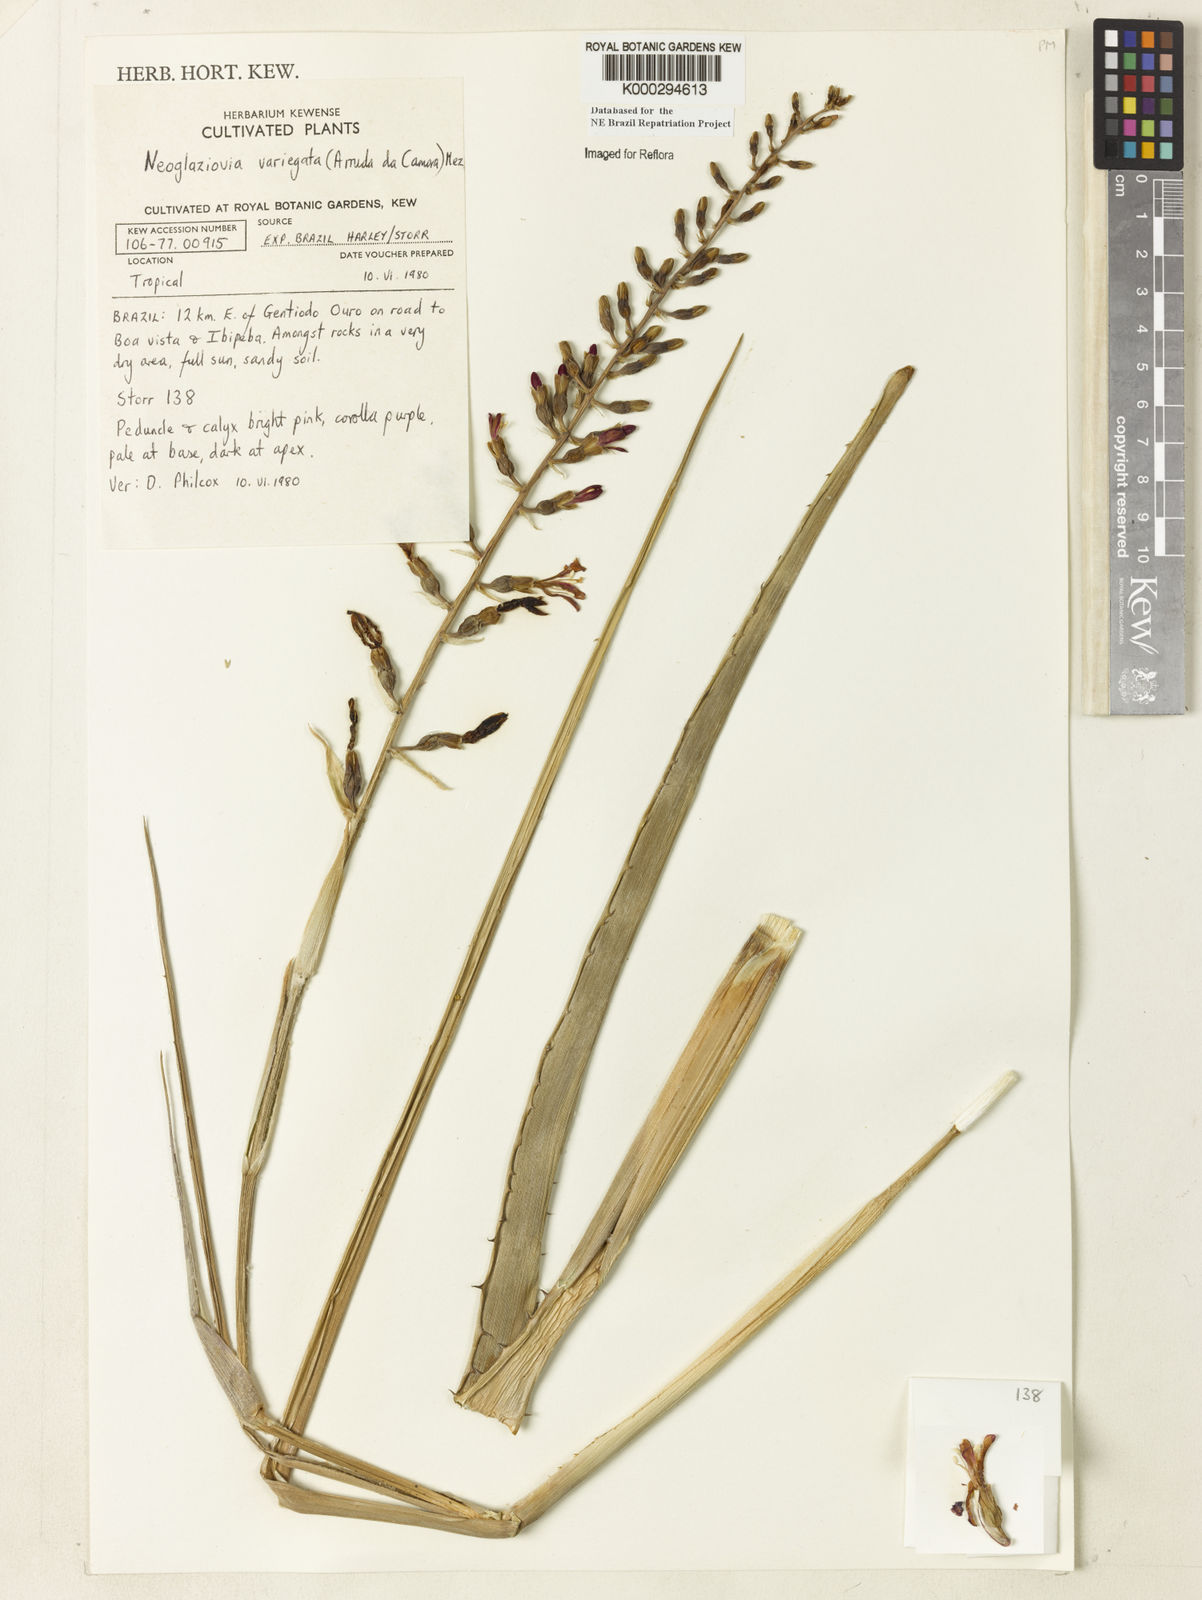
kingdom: Plantae
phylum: Tracheophyta
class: Liliopsida
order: Poales
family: Bromeliaceae
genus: Neoglaziovia
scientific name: Neoglaziovia variegata
